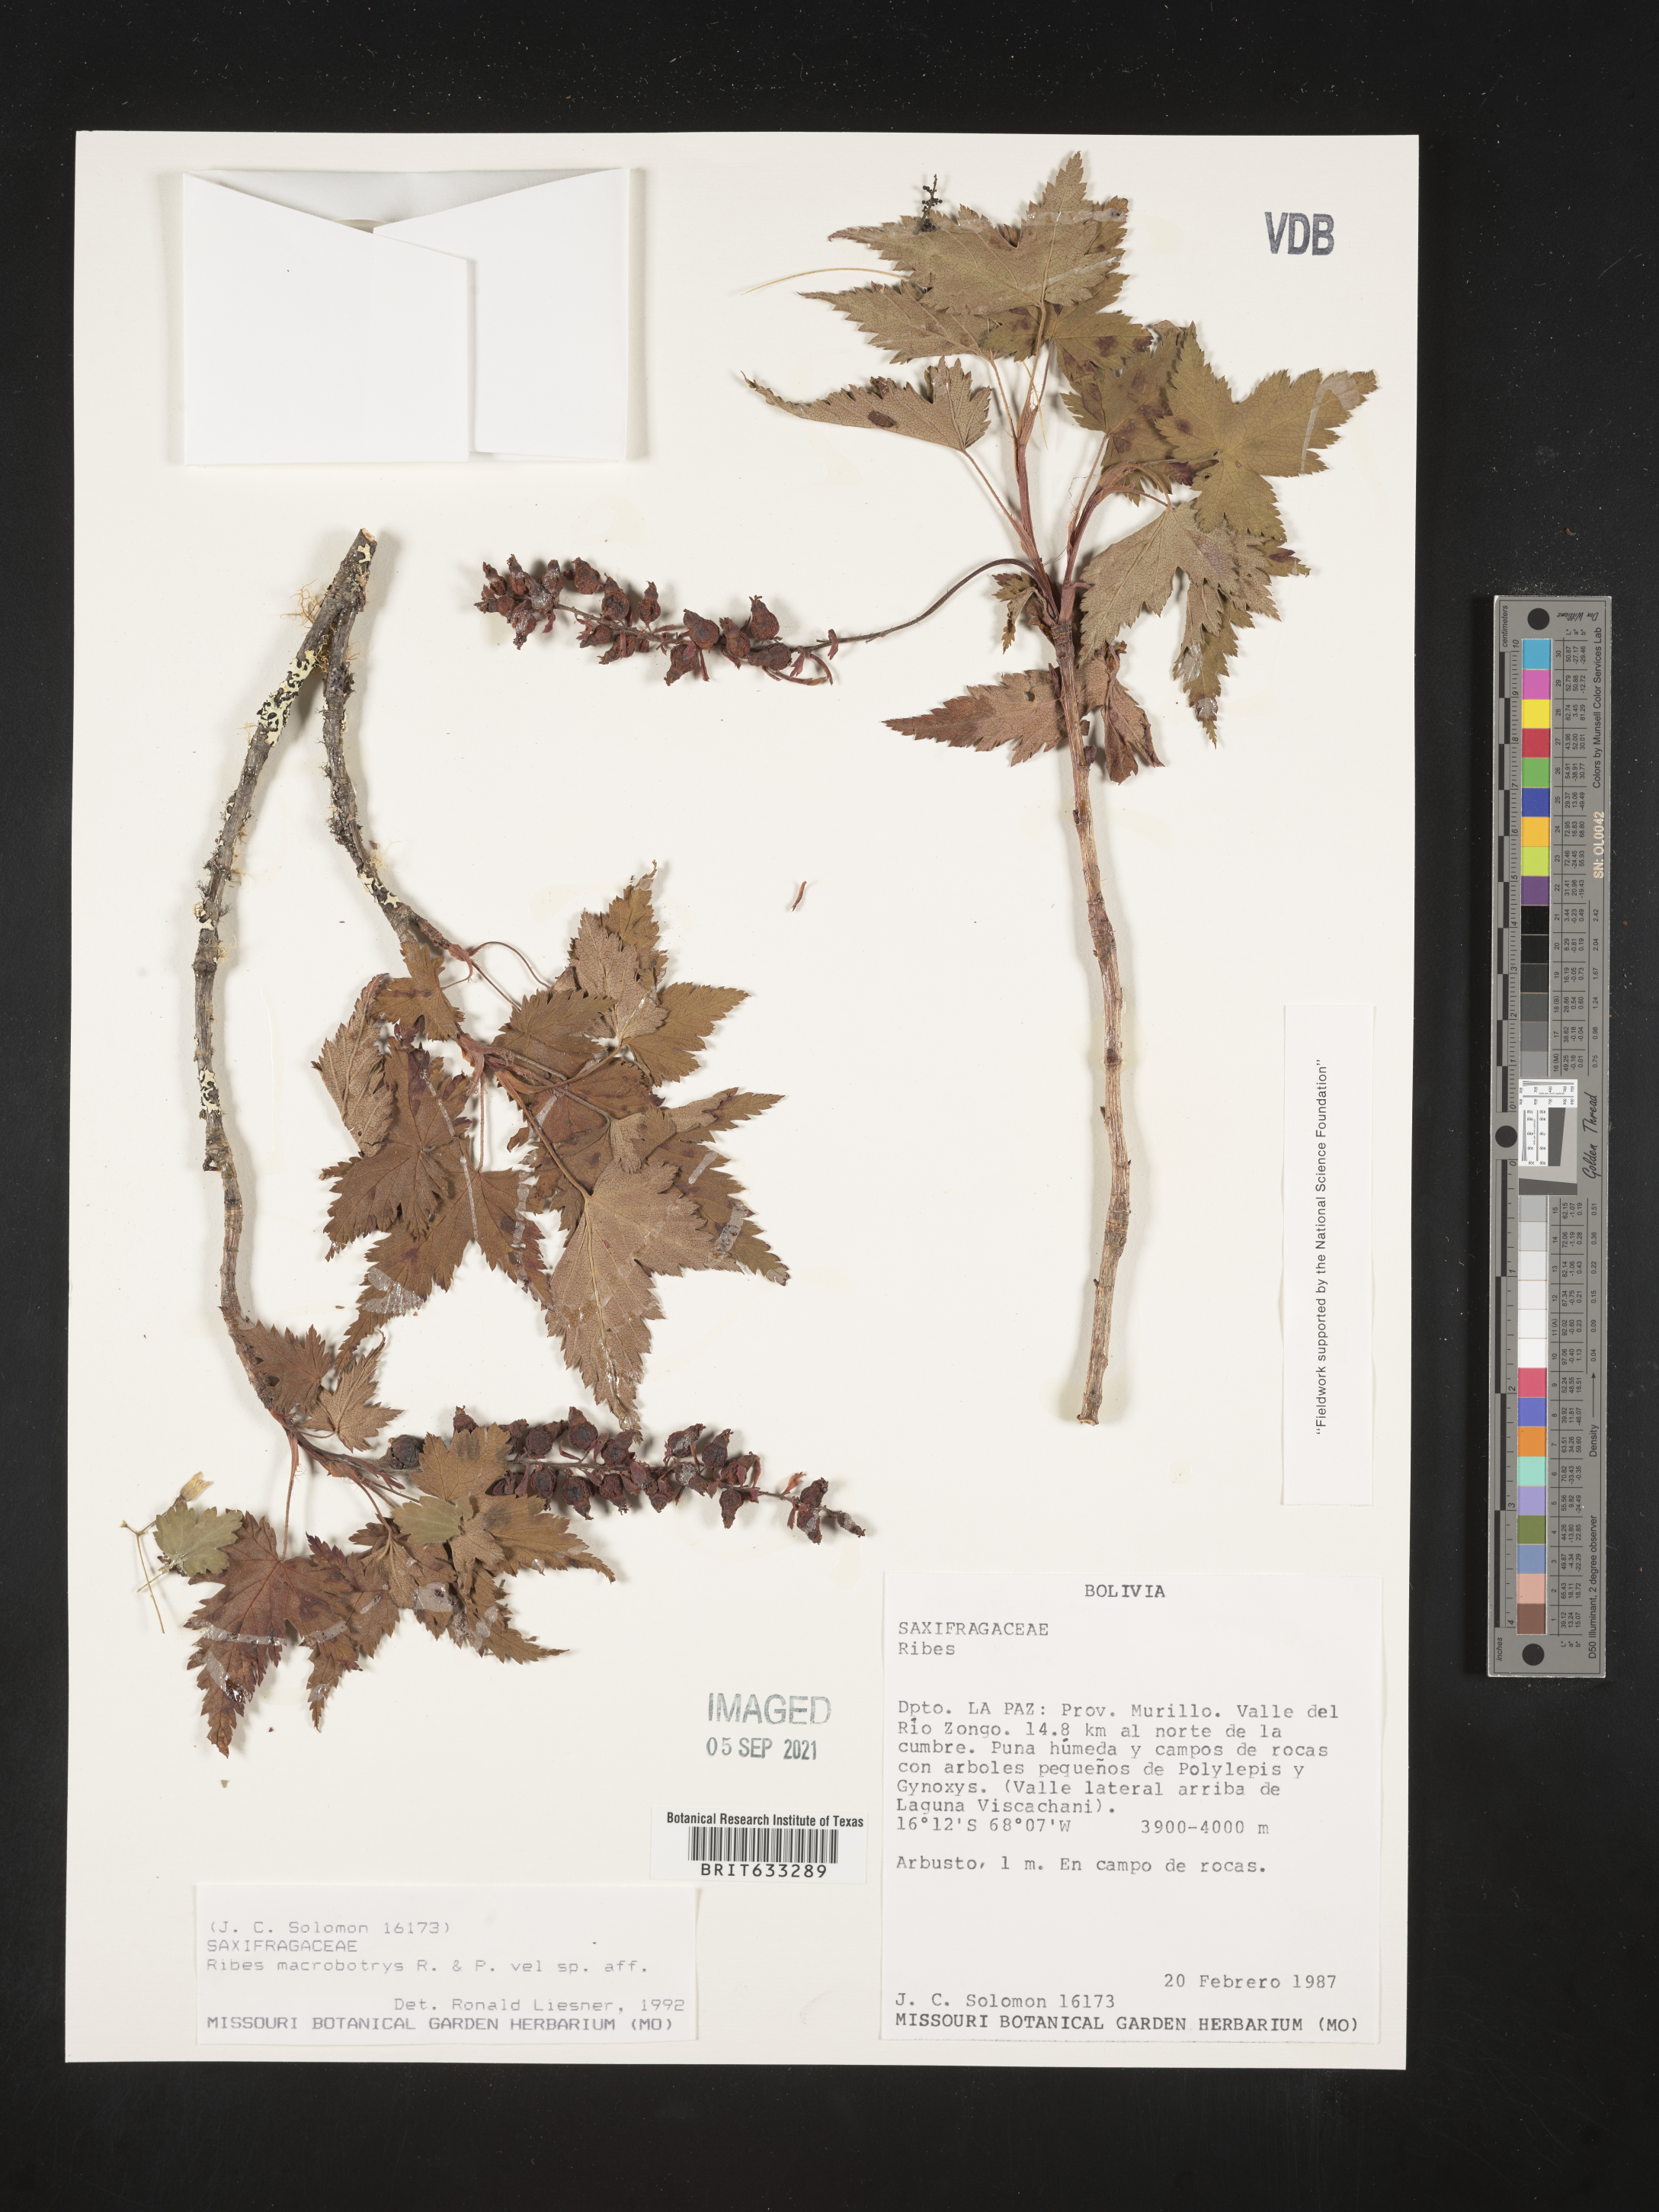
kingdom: Plantae
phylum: Tracheophyta
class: Magnoliopsida
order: Saxifragales
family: Grossulariaceae
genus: Ribes
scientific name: Ribes
